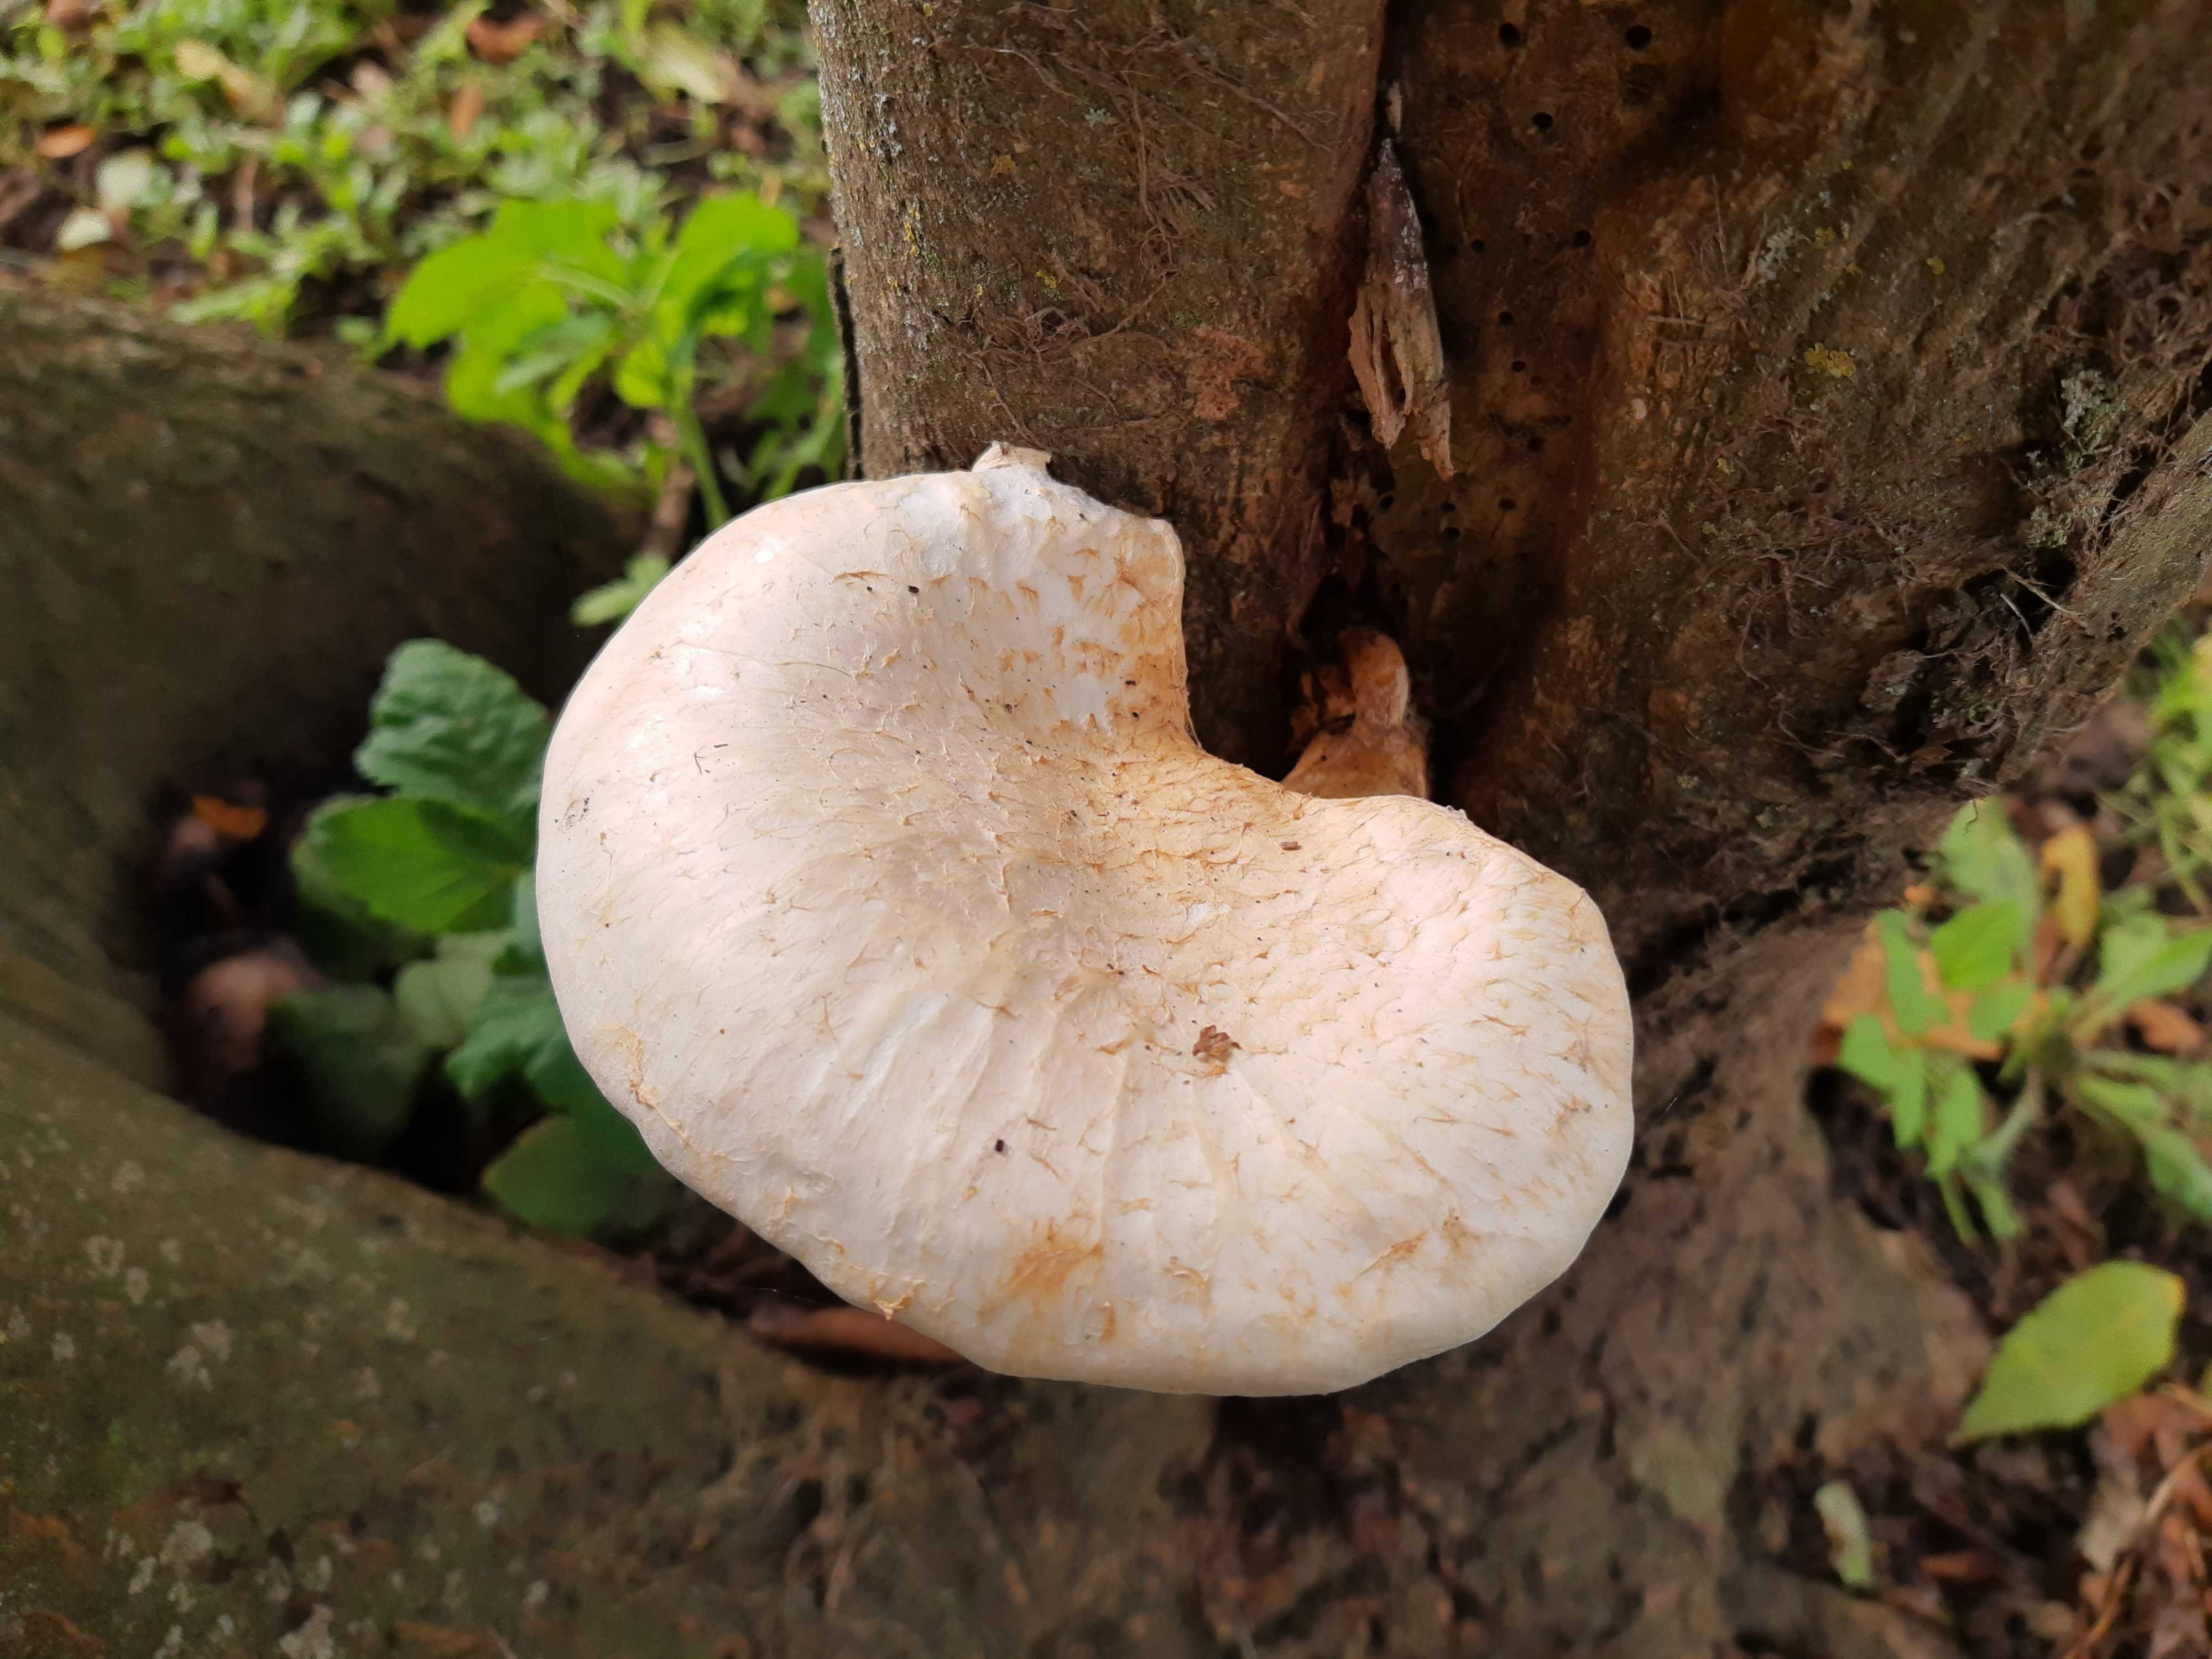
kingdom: Fungi
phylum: Basidiomycota
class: Agaricomycetes
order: Agaricales
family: Pleurotaceae
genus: Pleurotus
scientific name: Pleurotus dryinus
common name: korkagtig østershat
